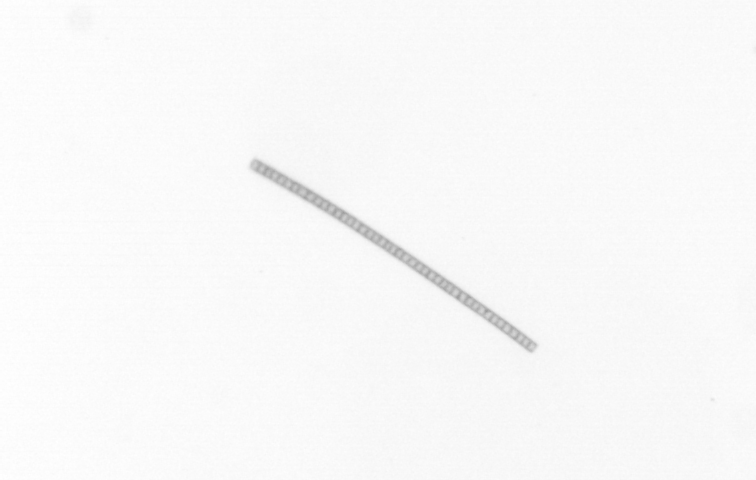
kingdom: Chromista
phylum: Ochrophyta
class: Bacillariophyceae
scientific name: Bacillariophyceae
